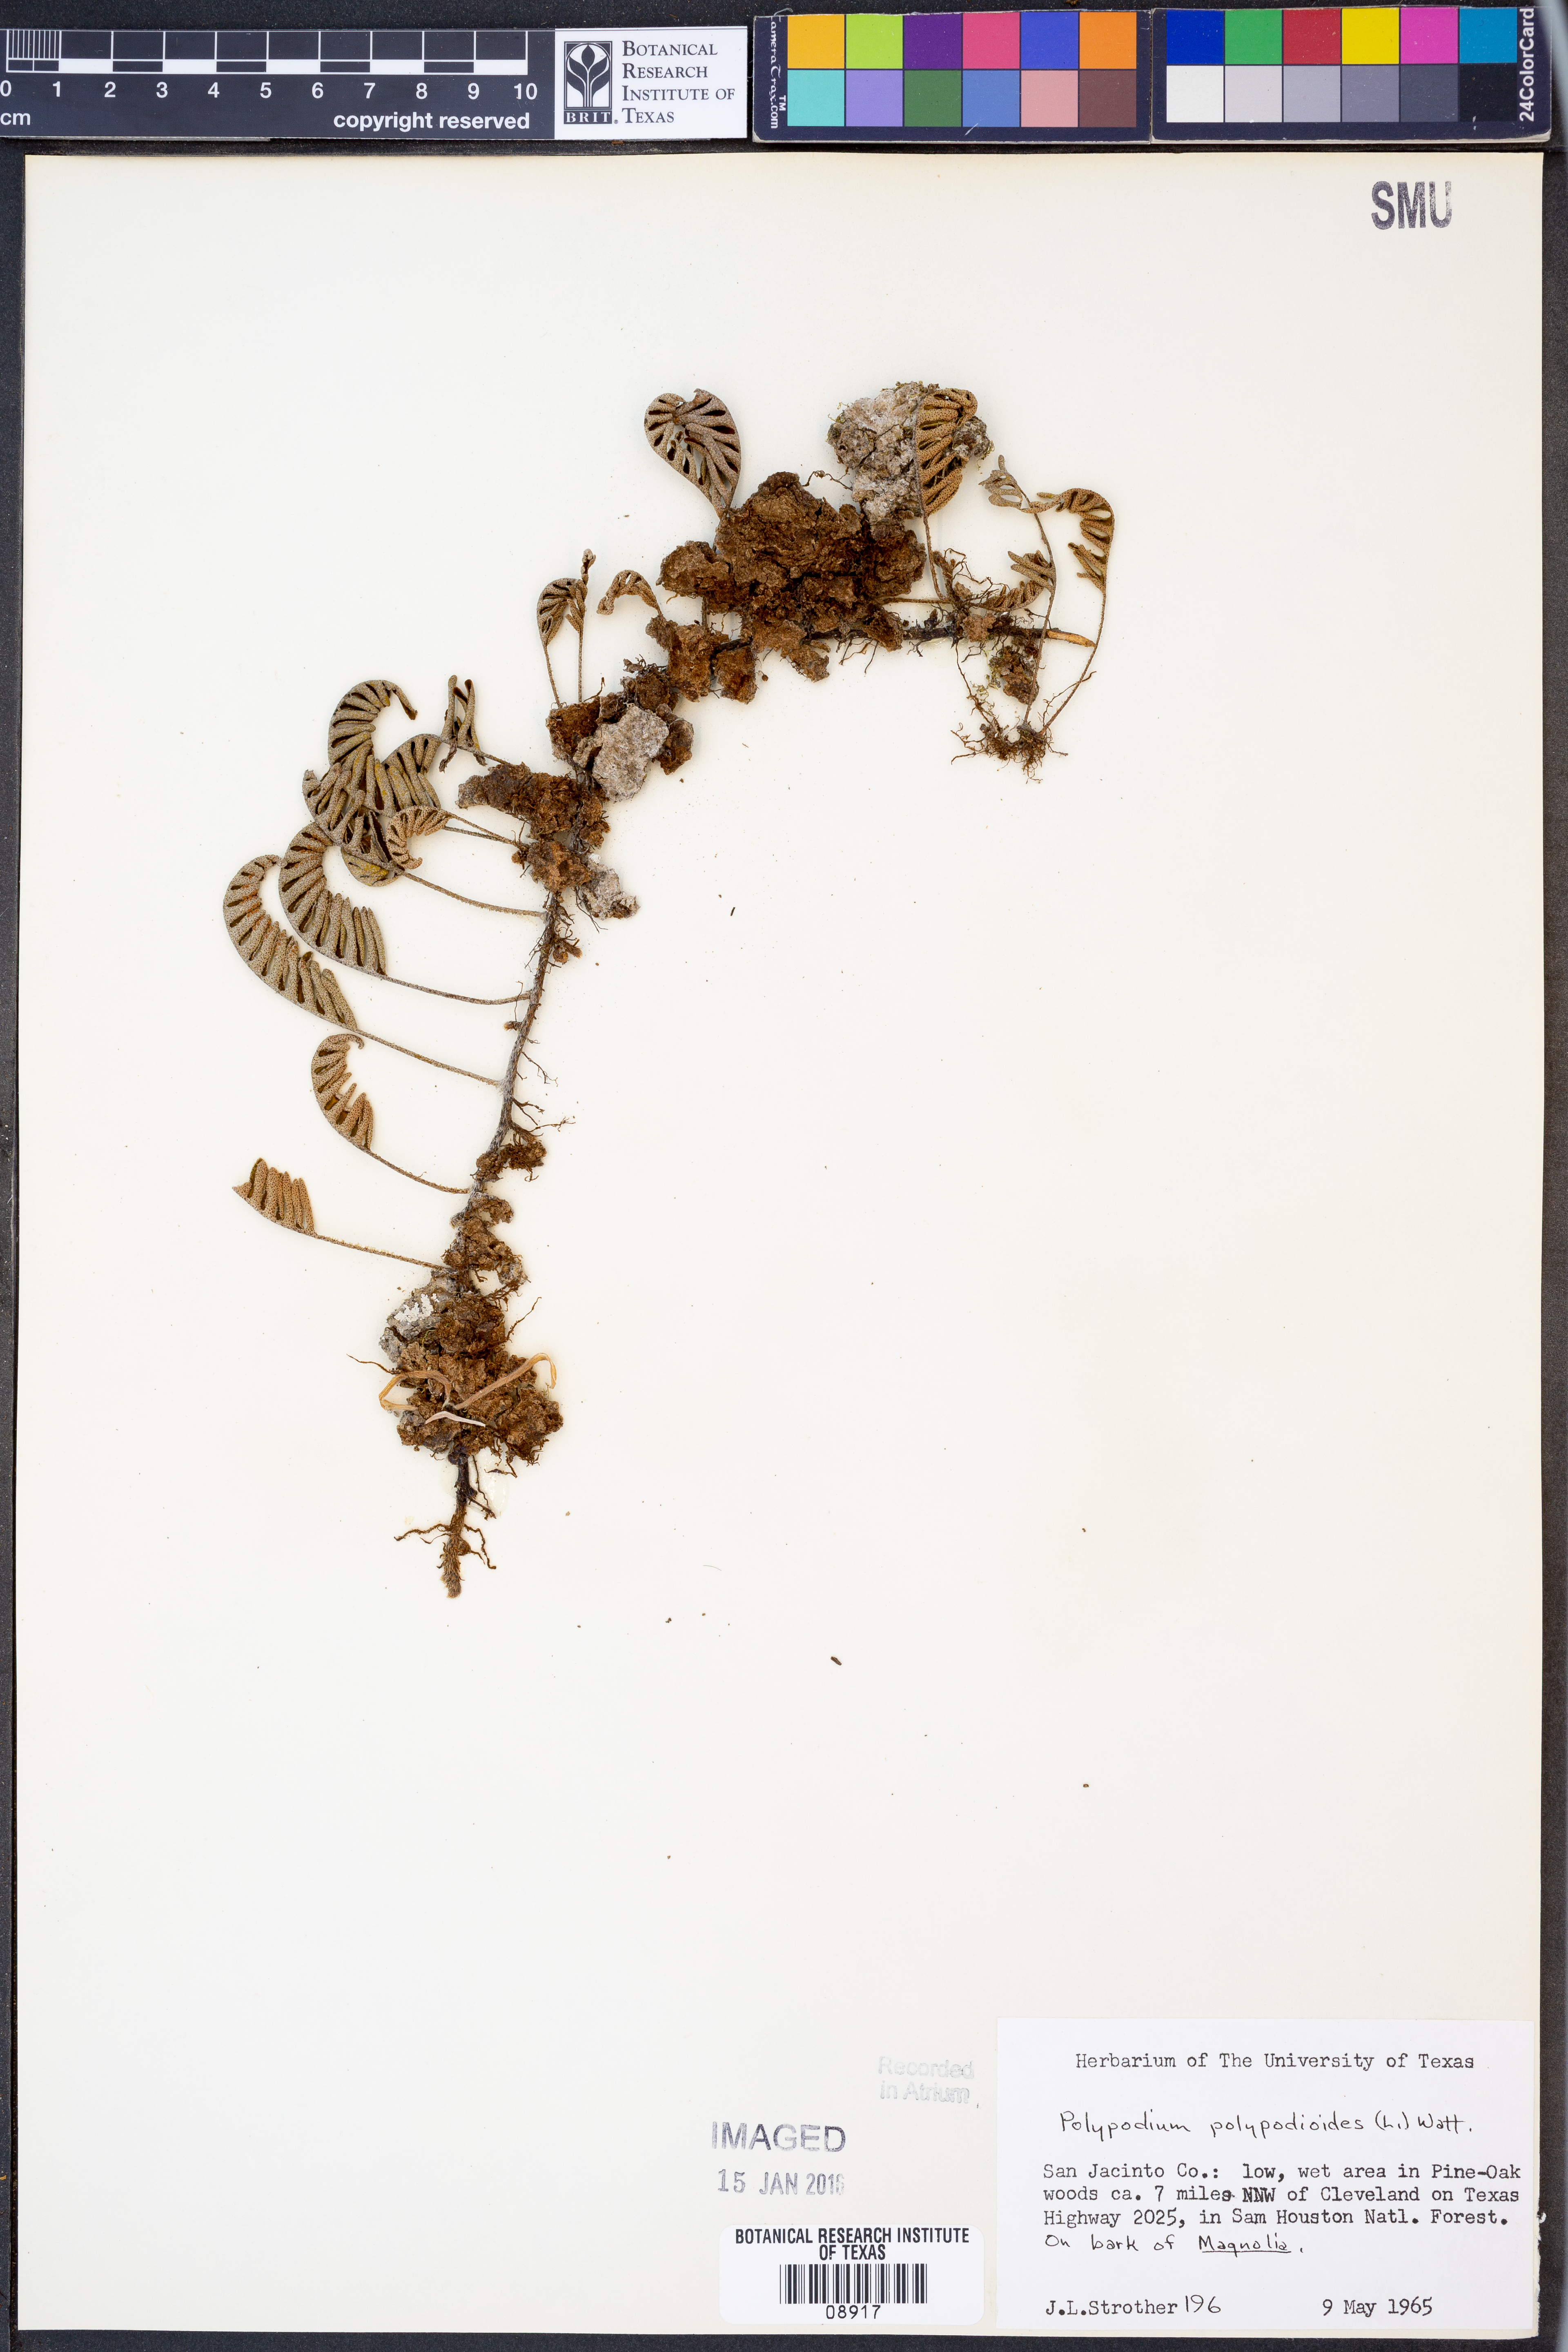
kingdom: Plantae
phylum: Tracheophyta
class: Polypodiopsida
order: Polypodiales
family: Polypodiaceae
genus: Pleopeltis
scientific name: Pleopeltis polypodioides
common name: Resurrection fern
